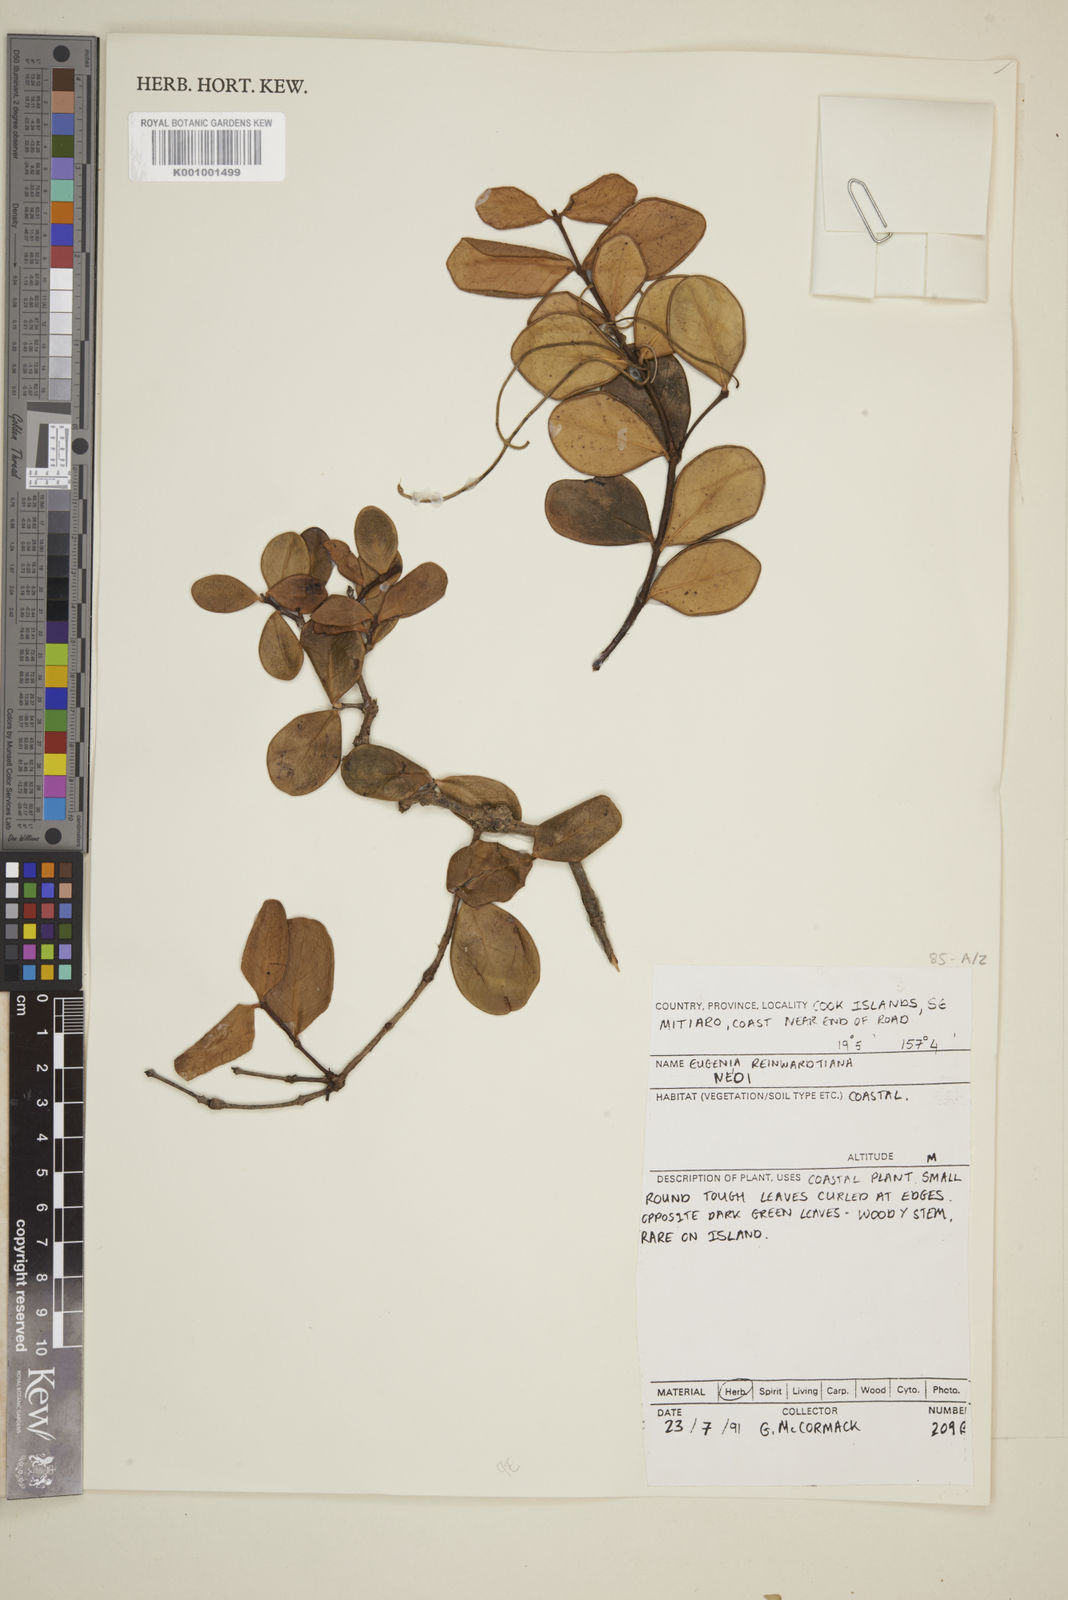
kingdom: Plantae
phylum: Tracheophyta
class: Magnoliopsida
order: Myrtales
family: Myrtaceae
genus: Eugenia
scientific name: Eugenia reinwardtiana
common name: Cedar bay-cherry
